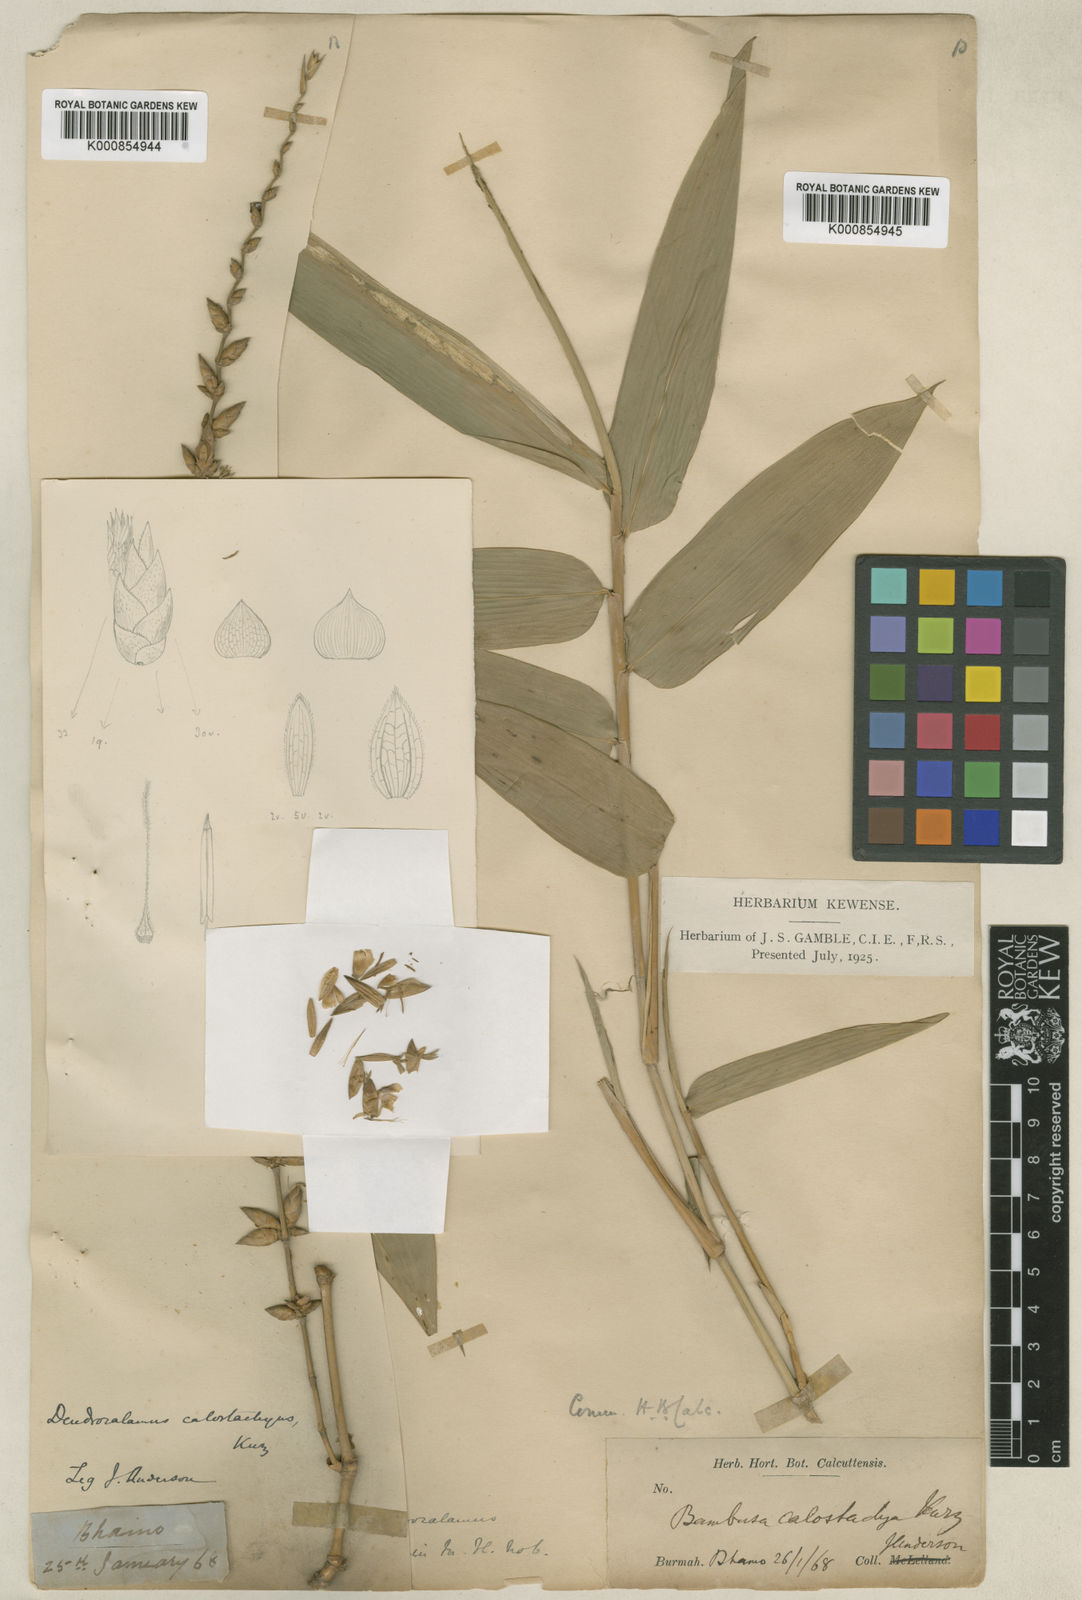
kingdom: Plantae
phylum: Tracheophyta
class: Liliopsida
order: Poales
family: Poaceae
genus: Dendrocalamus
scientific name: Dendrocalamus
